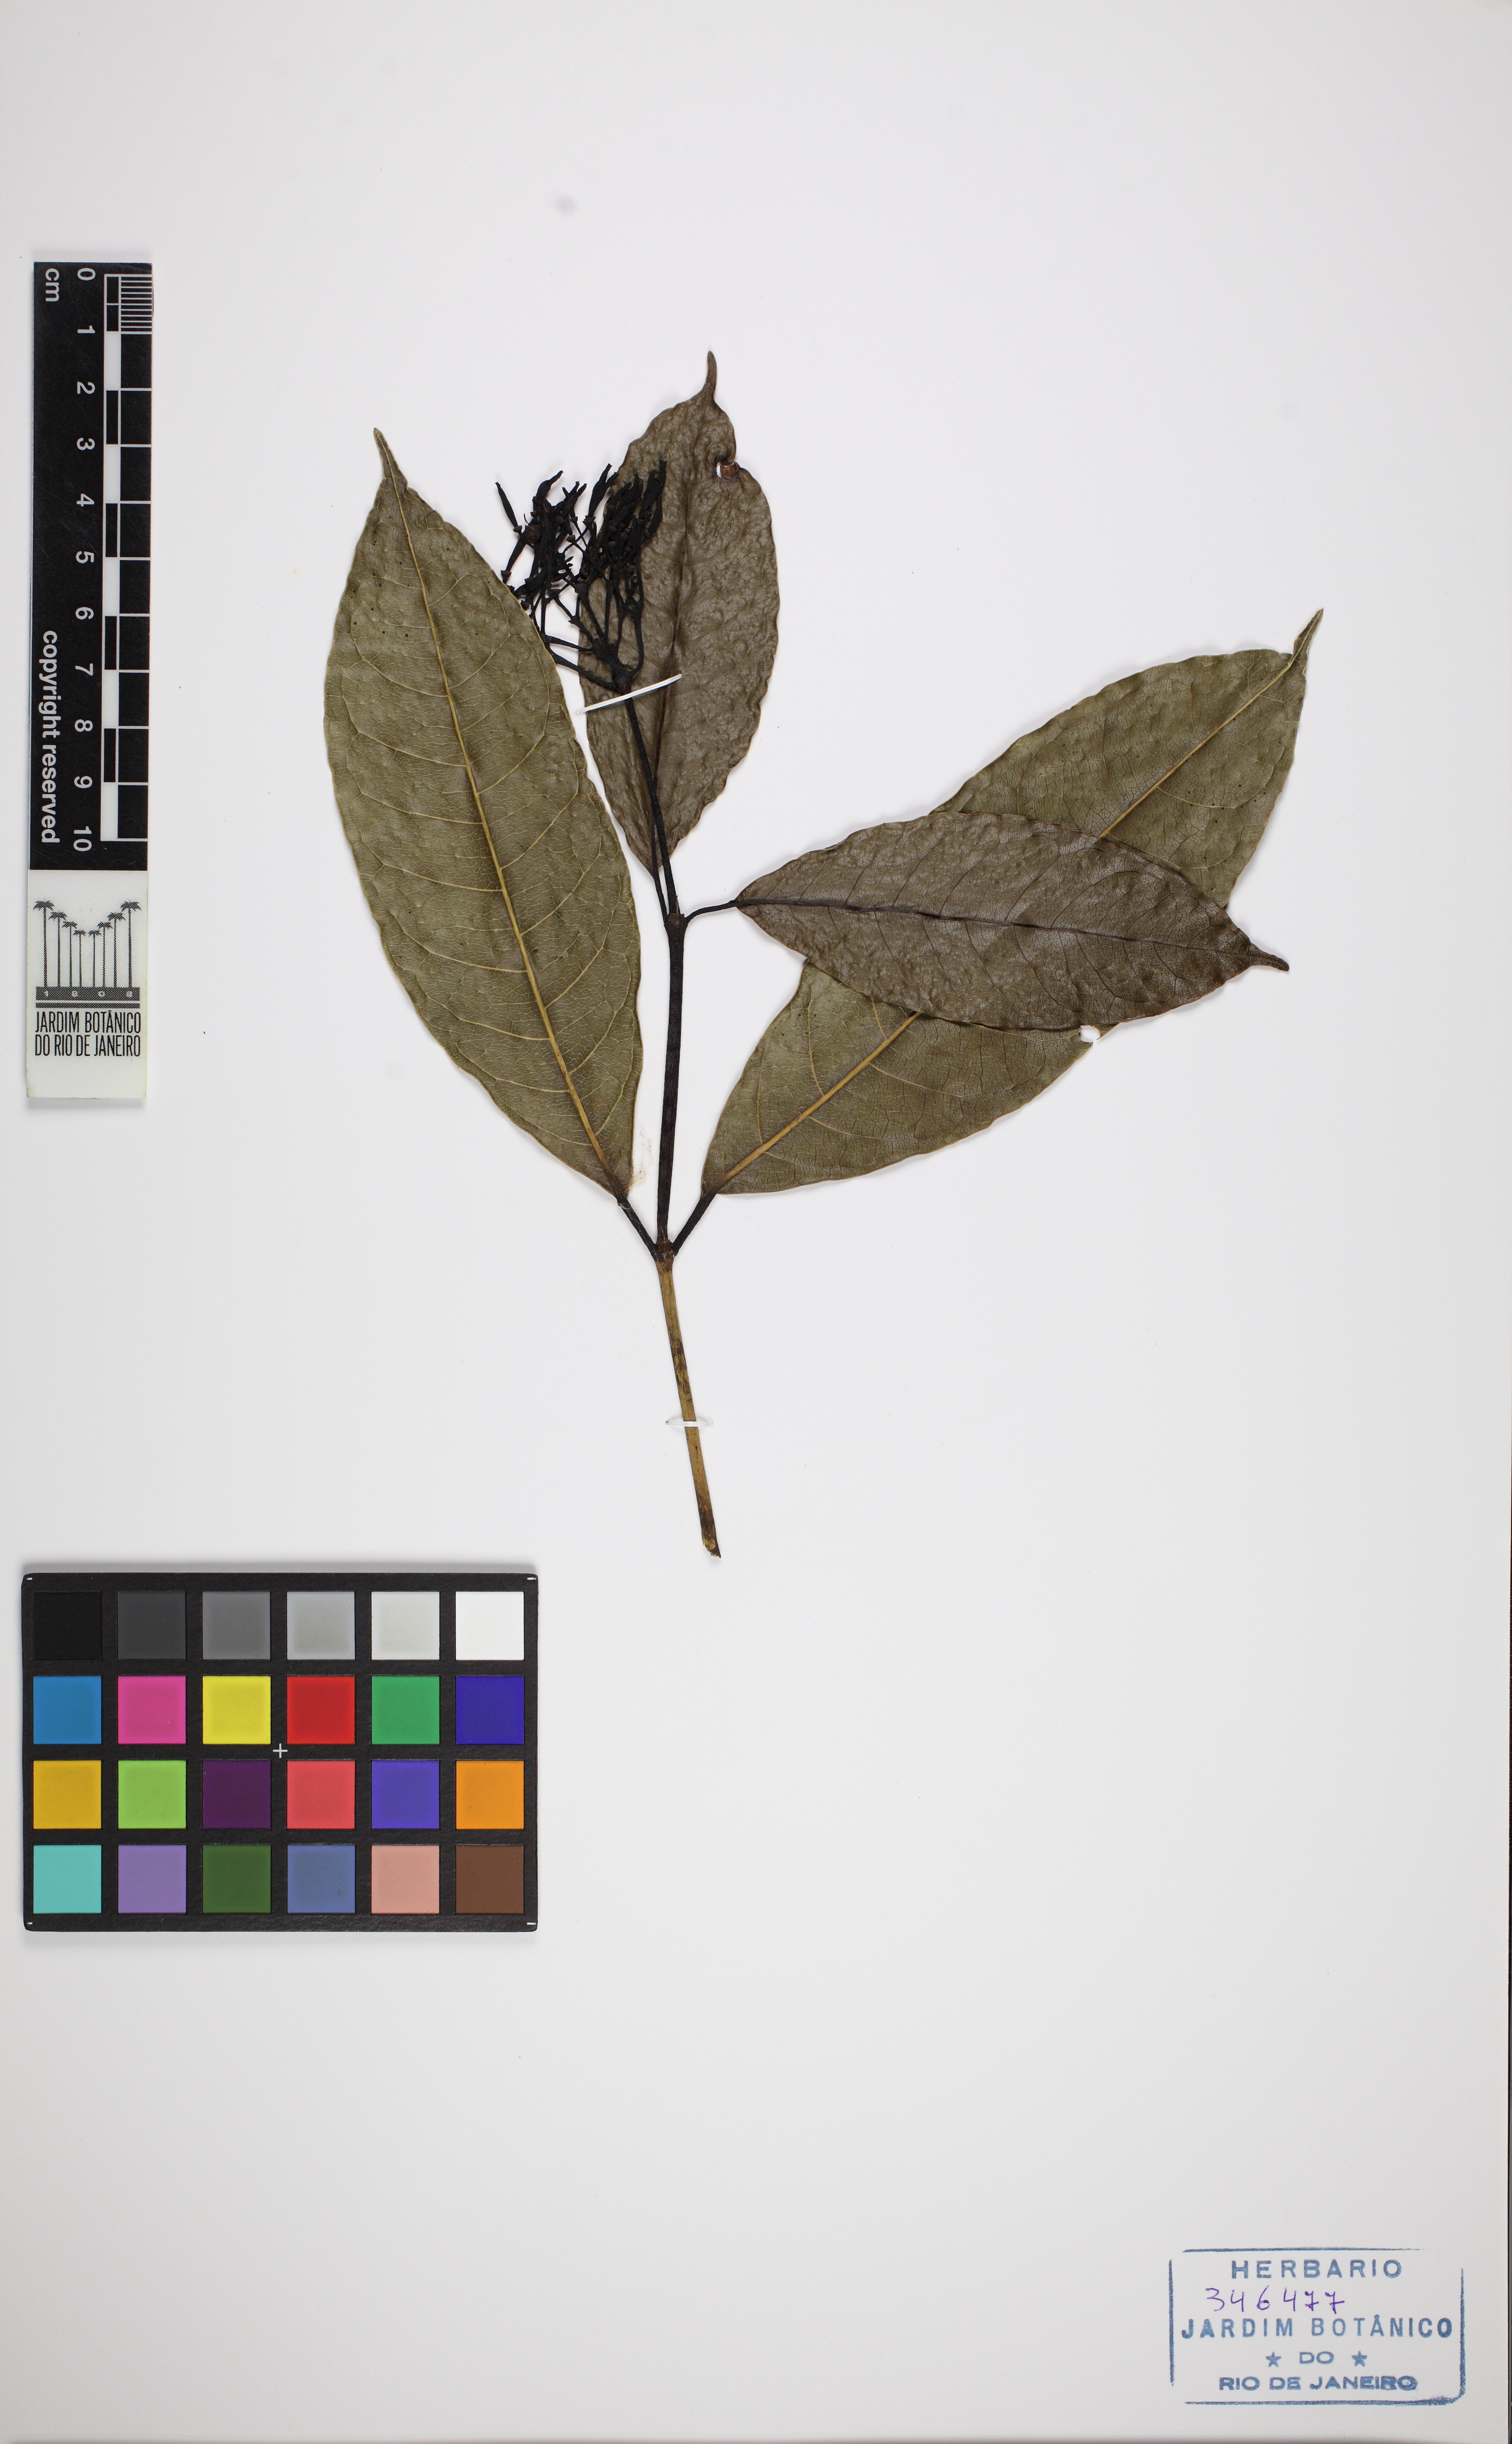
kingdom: Plantae
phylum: Tracheophyta
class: Magnoliopsida
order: Gentianales
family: Rubiaceae
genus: Faramea
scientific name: Faramea latifolia
